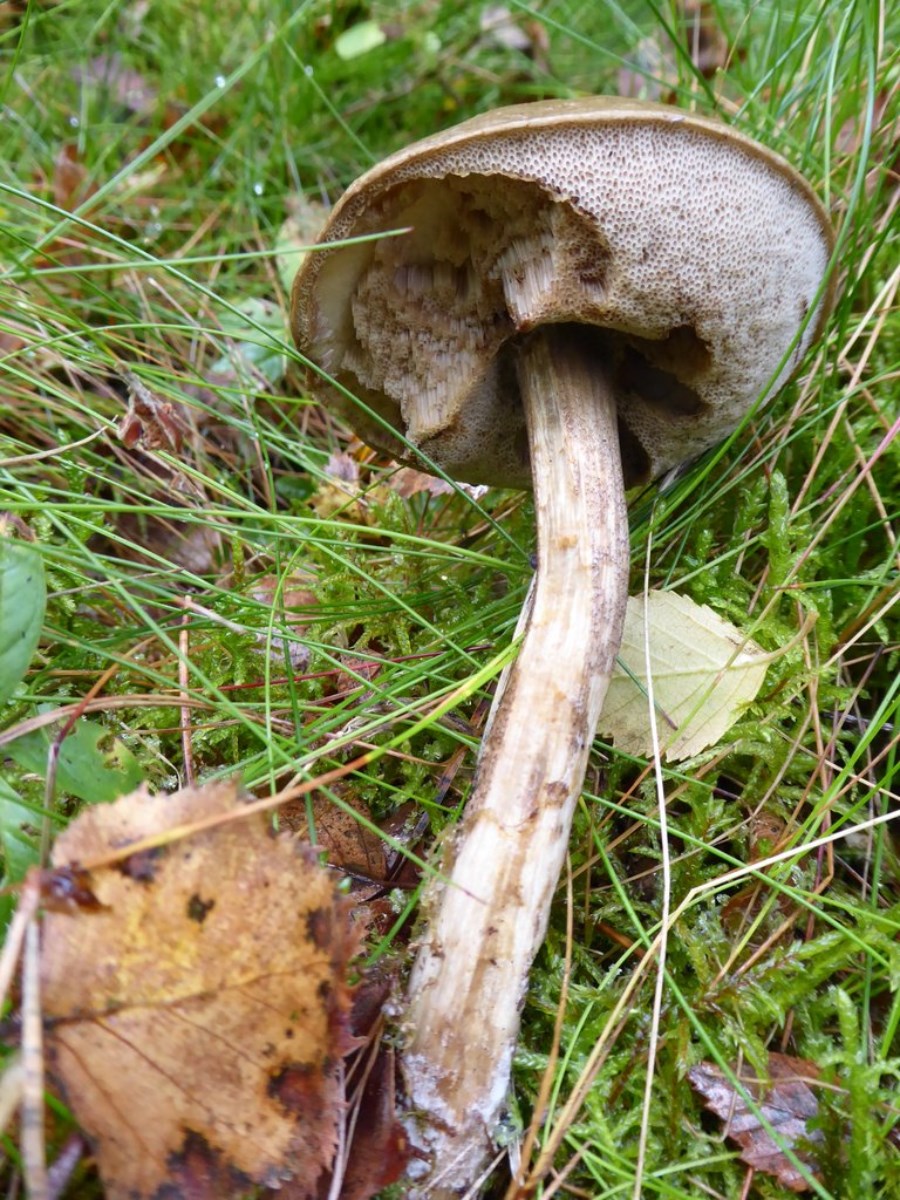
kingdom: Fungi
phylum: Basidiomycota
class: Agaricomycetes
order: Boletales
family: Boletaceae
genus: Leccinum
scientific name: Leccinum
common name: skælrørhat
